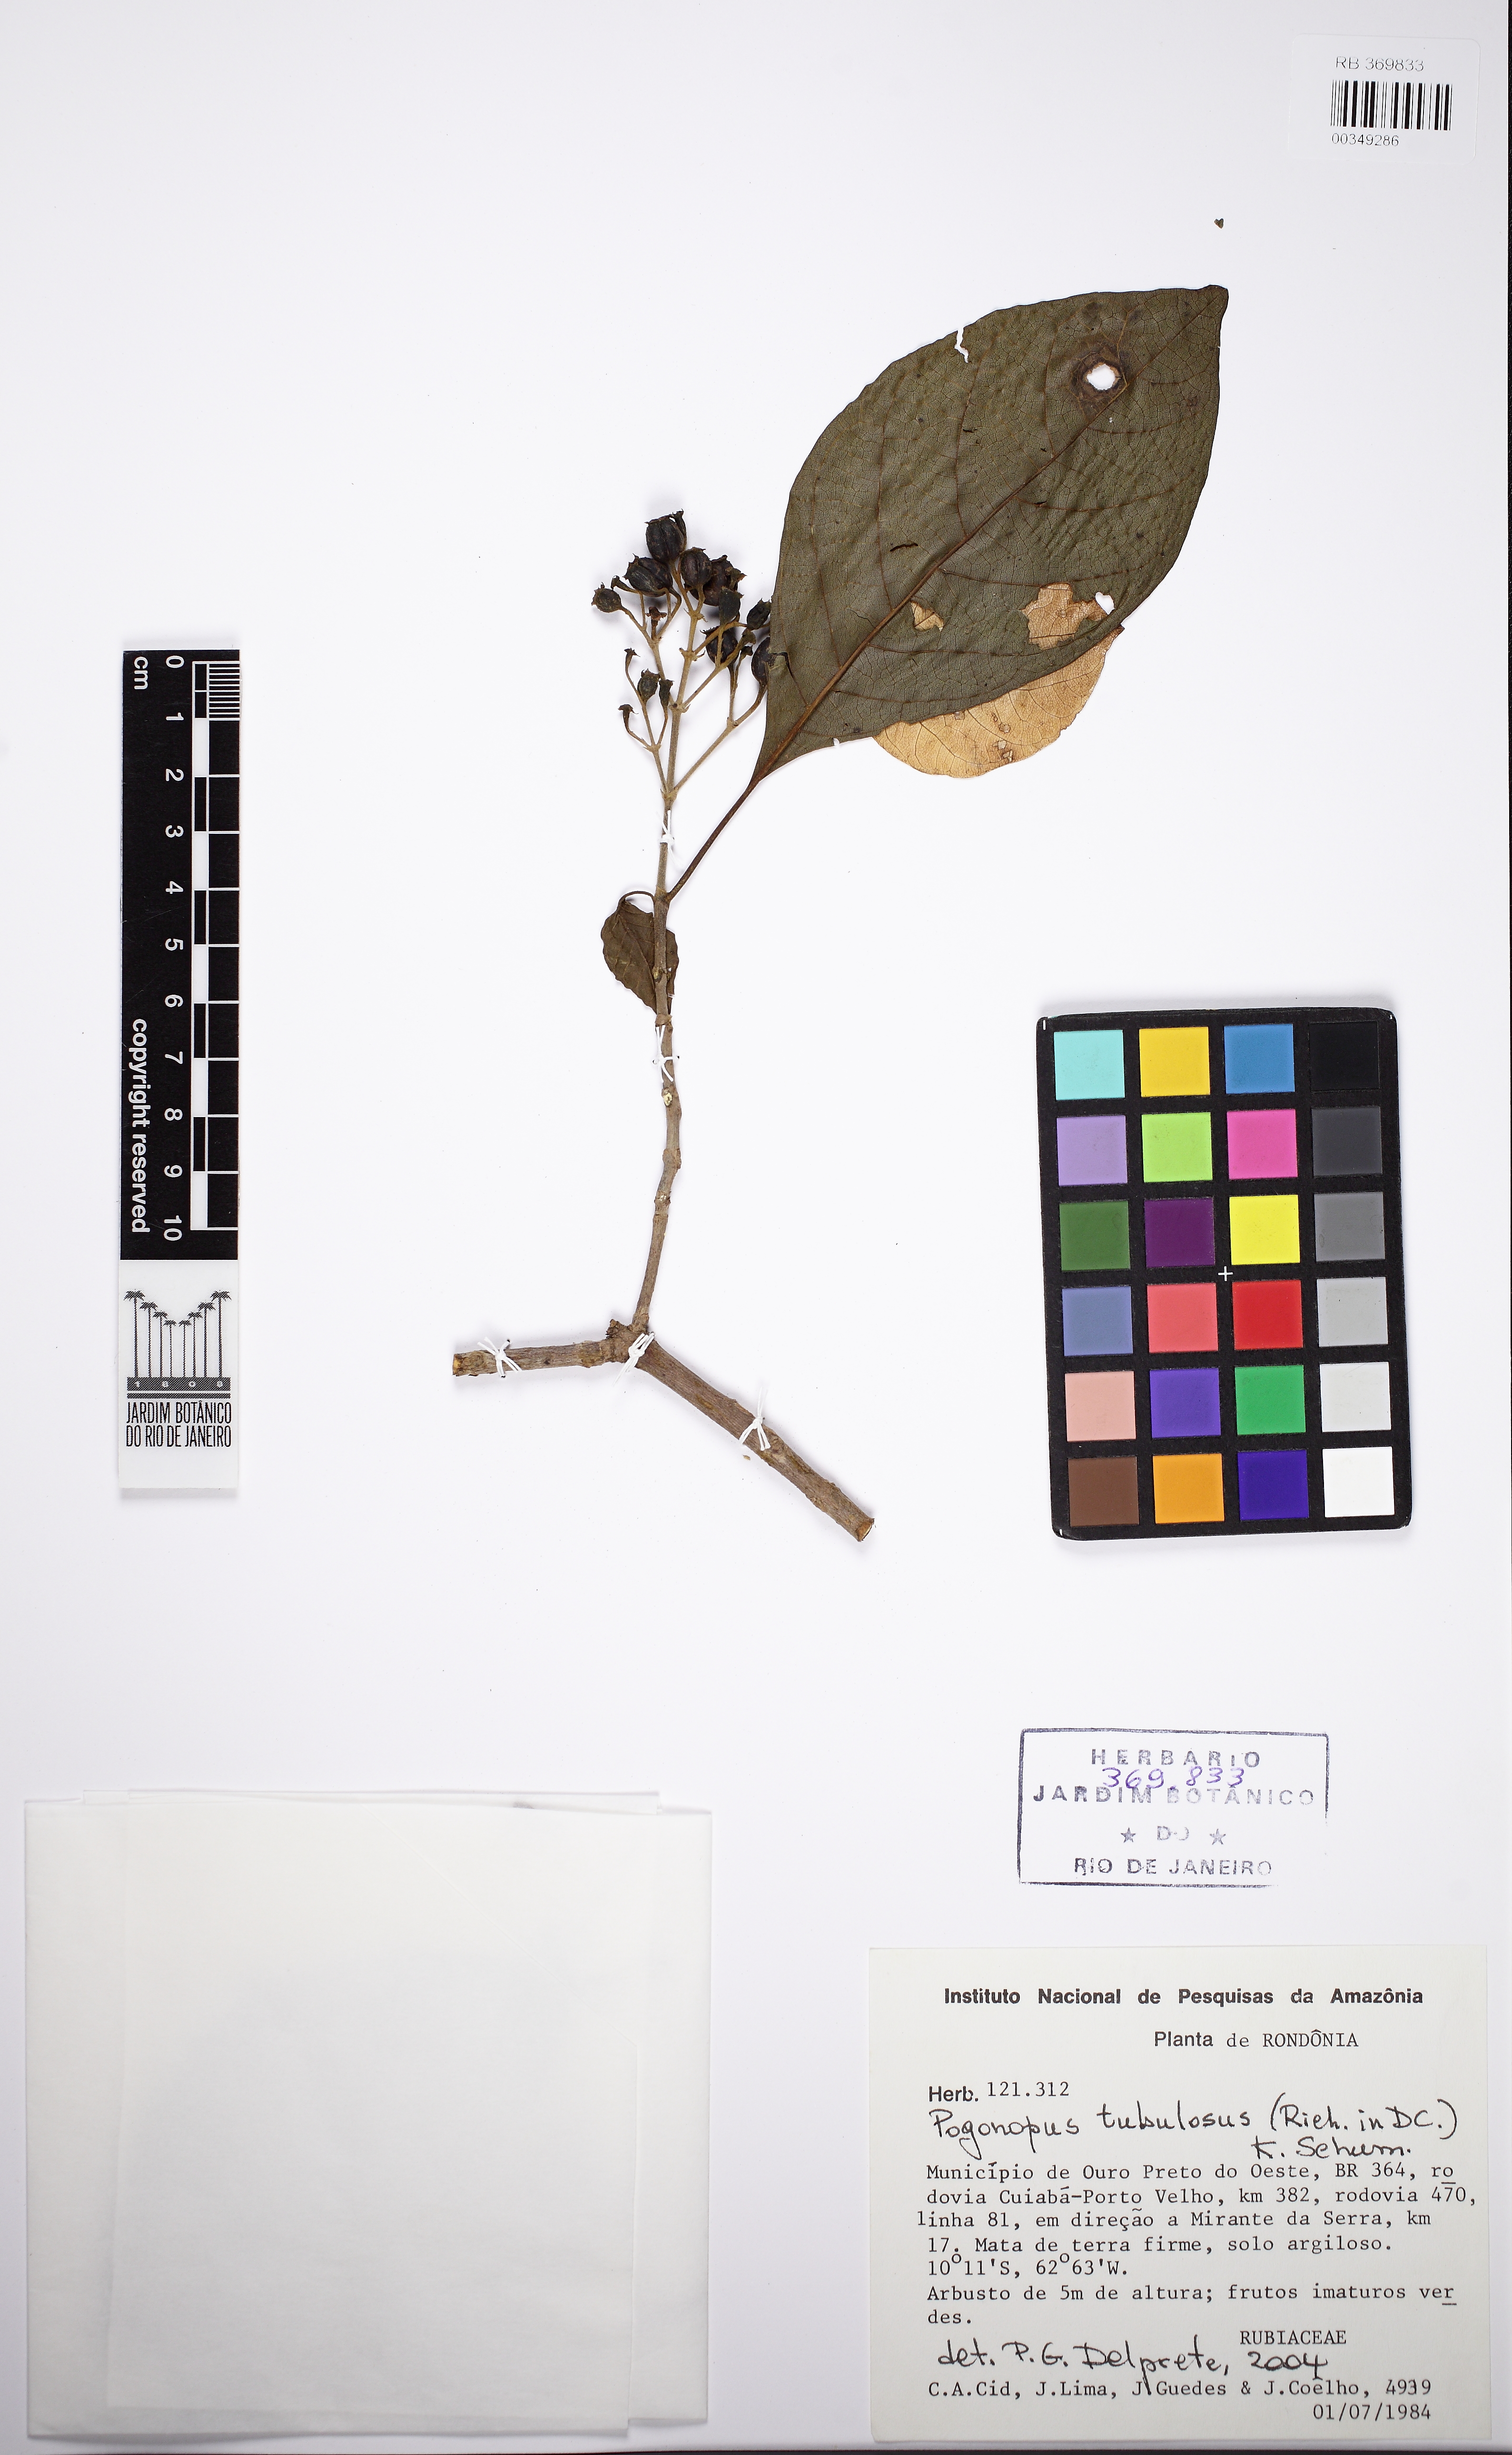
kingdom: Plantae
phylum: Tracheophyta
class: Magnoliopsida
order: Gentianales
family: Rubiaceae
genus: Pogonopus
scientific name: Pogonopus tubulosus
